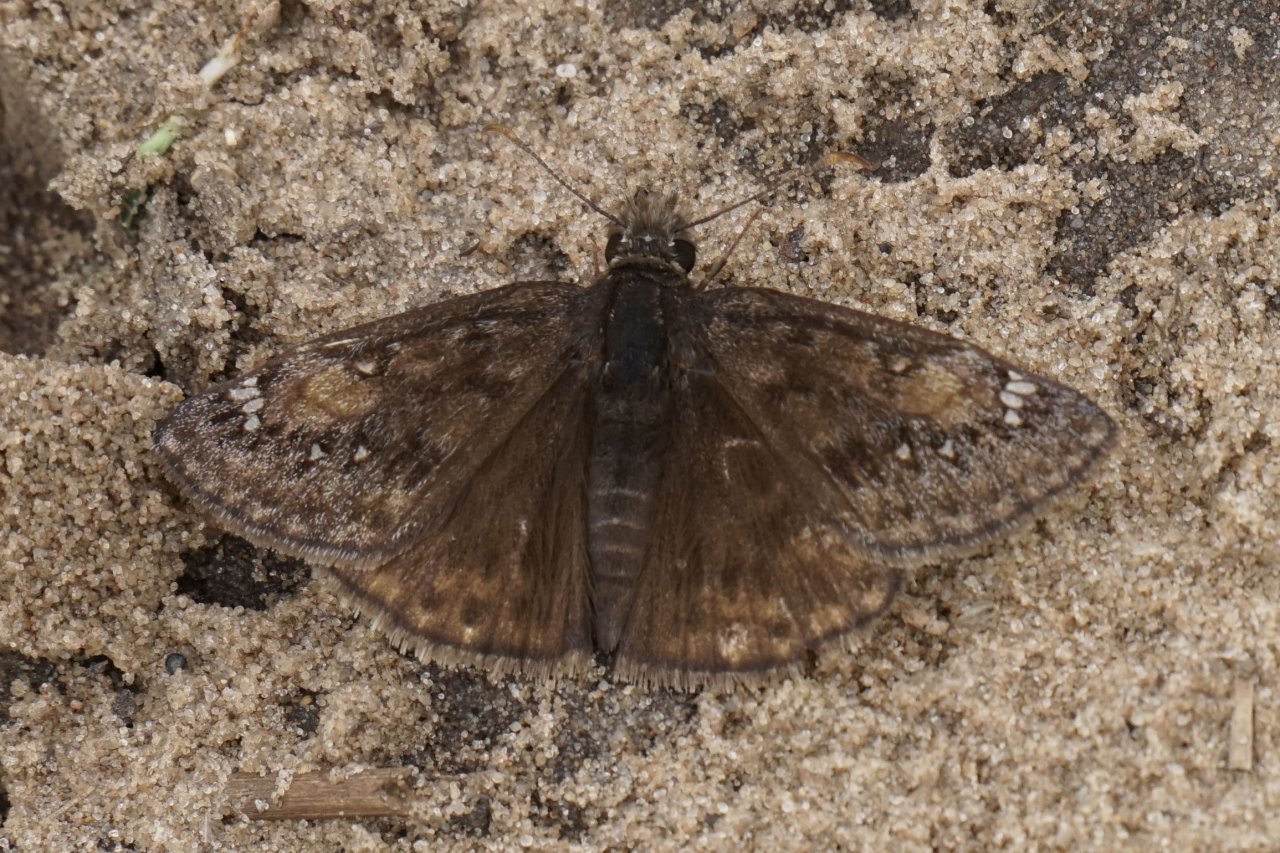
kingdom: Animalia
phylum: Arthropoda
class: Insecta
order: Lepidoptera
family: Hesperiidae
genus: Gesta
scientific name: Gesta
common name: Juvenal's Duskywing
